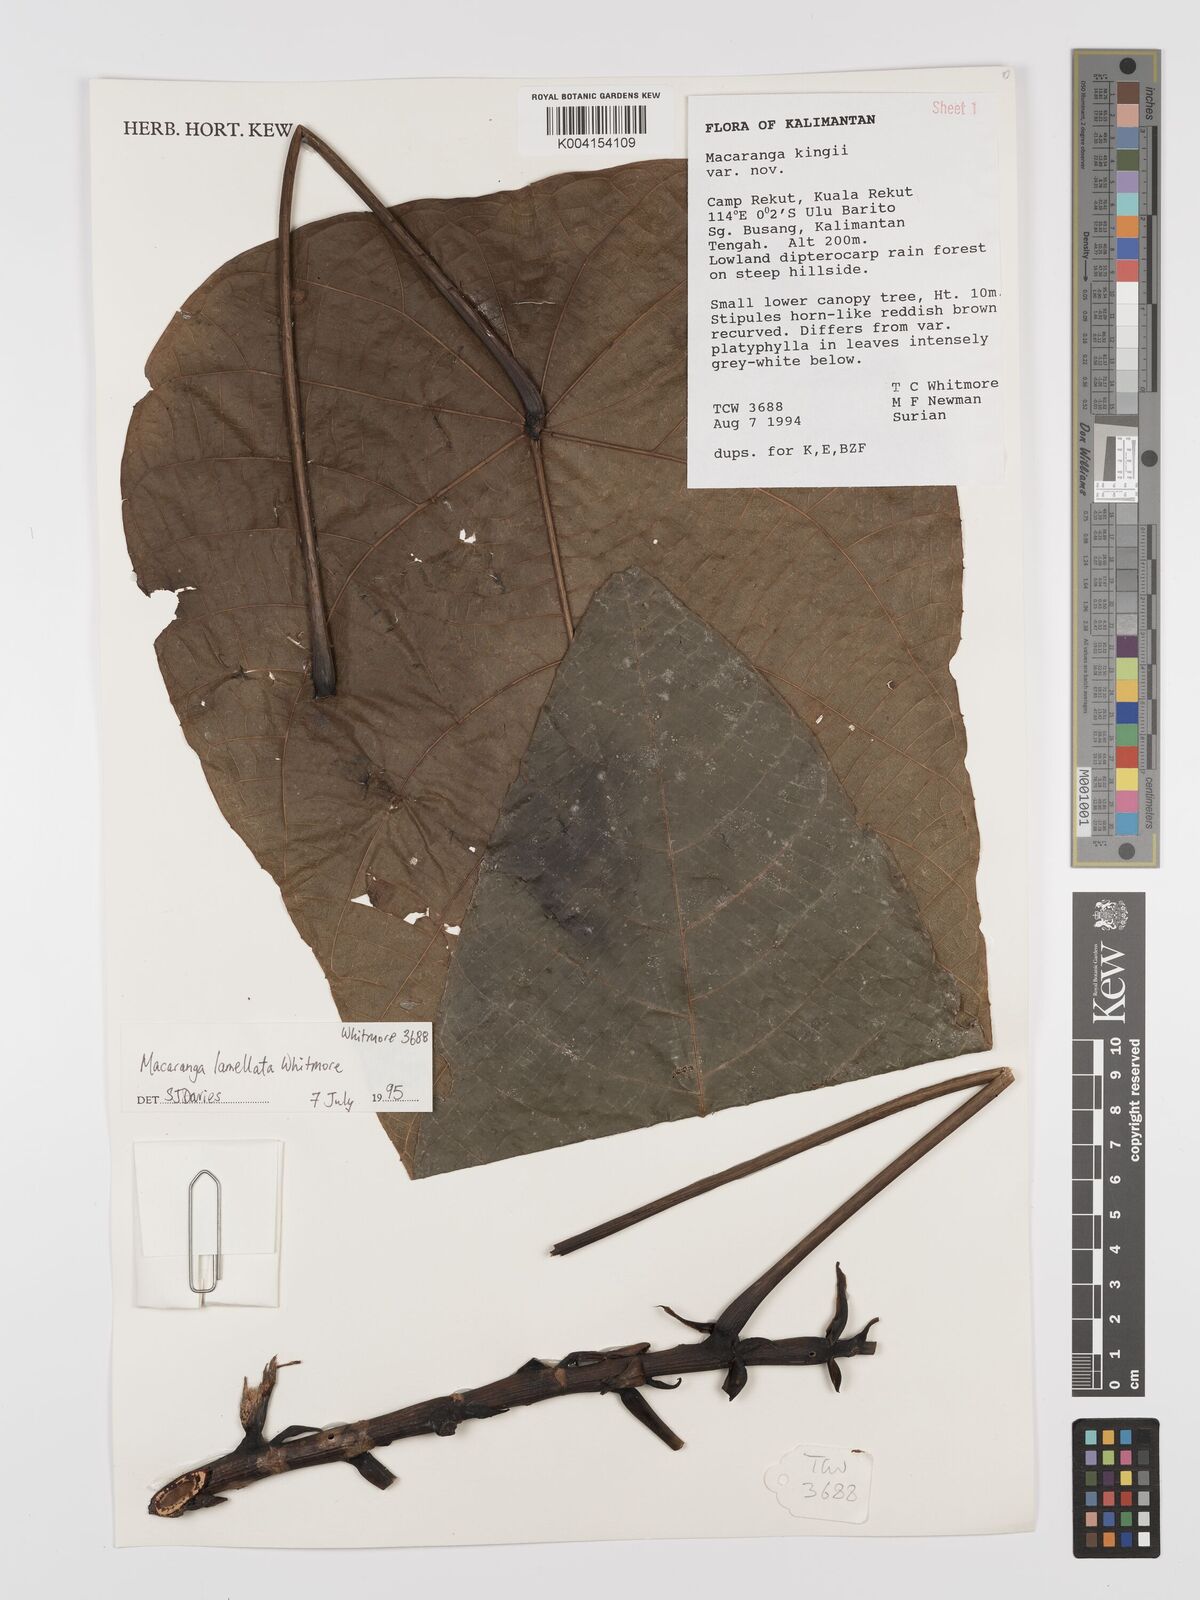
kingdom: Plantae
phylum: Tracheophyta
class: Magnoliopsida
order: Malpighiales
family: Euphorbiaceae
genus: Macaranga
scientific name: Macaranga lamellata
